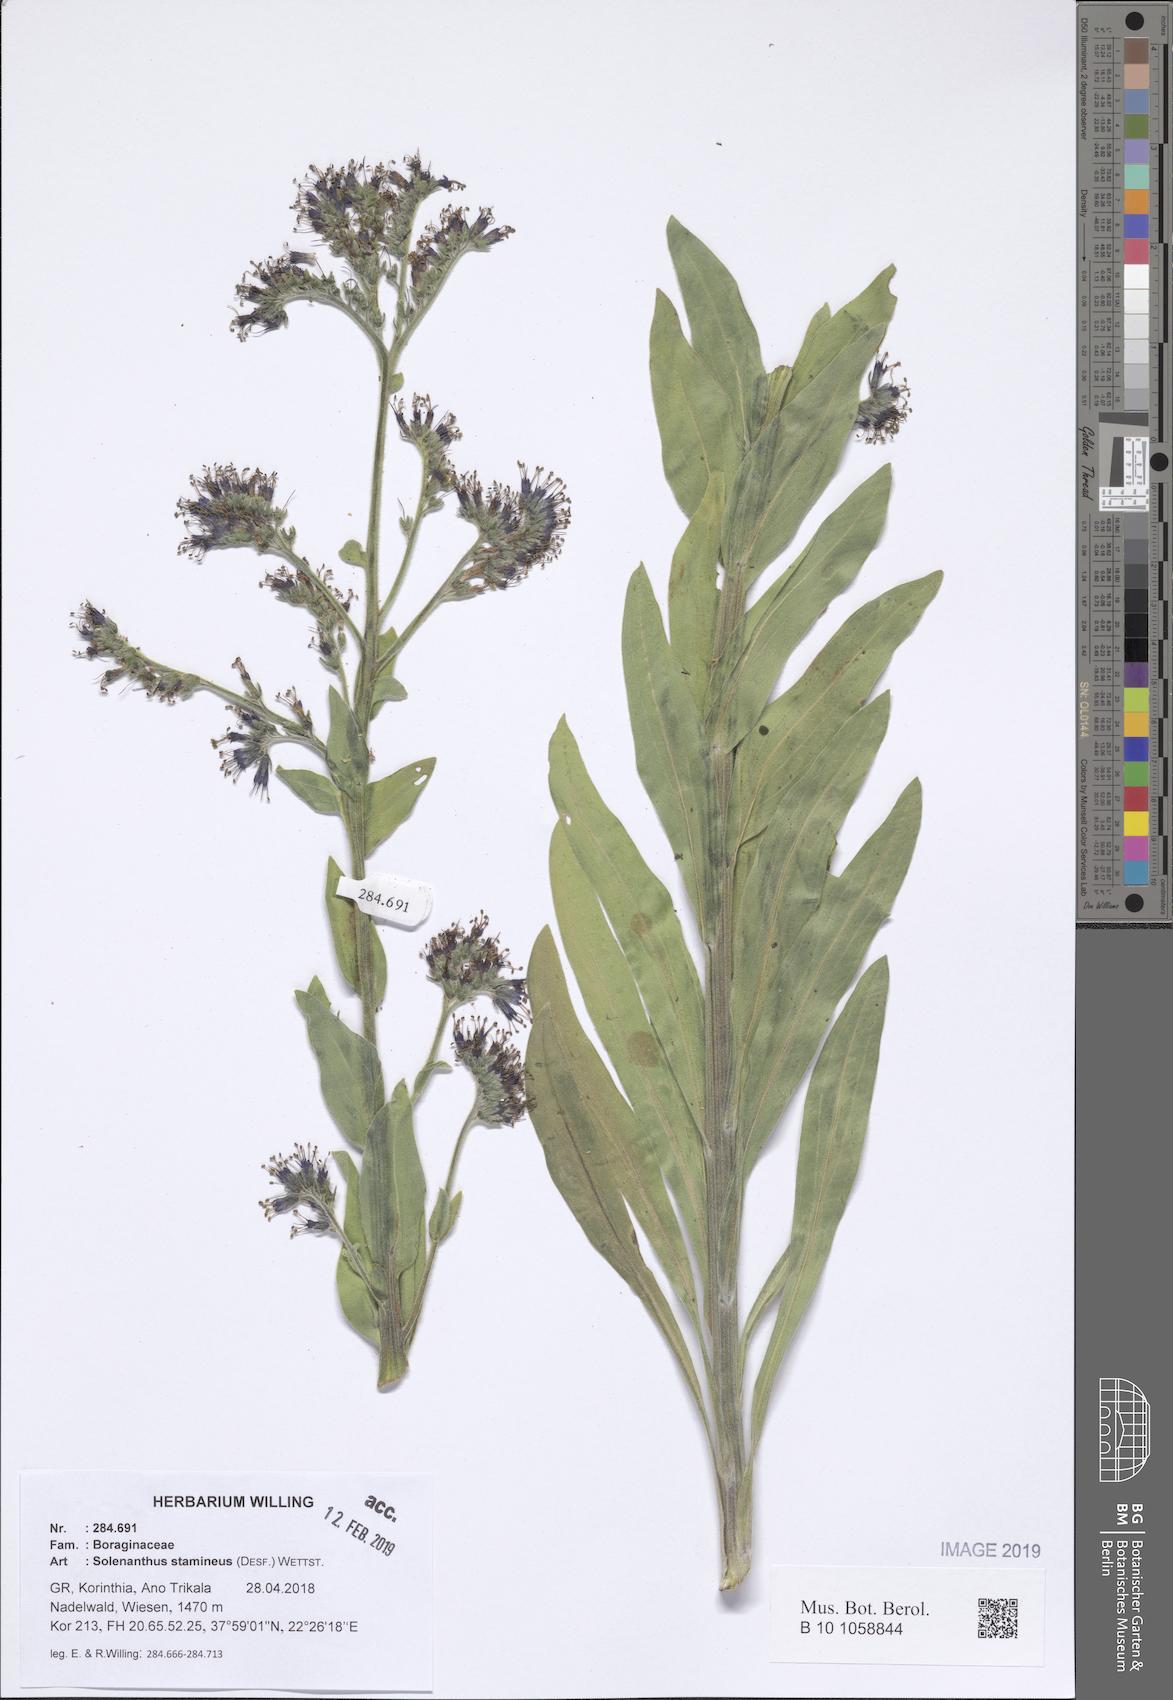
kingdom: Plantae
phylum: Tracheophyta
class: Magnoliopsida
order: Boraginales
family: Boraginaceae
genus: Solenanthus
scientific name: Solenanthus stamineus
